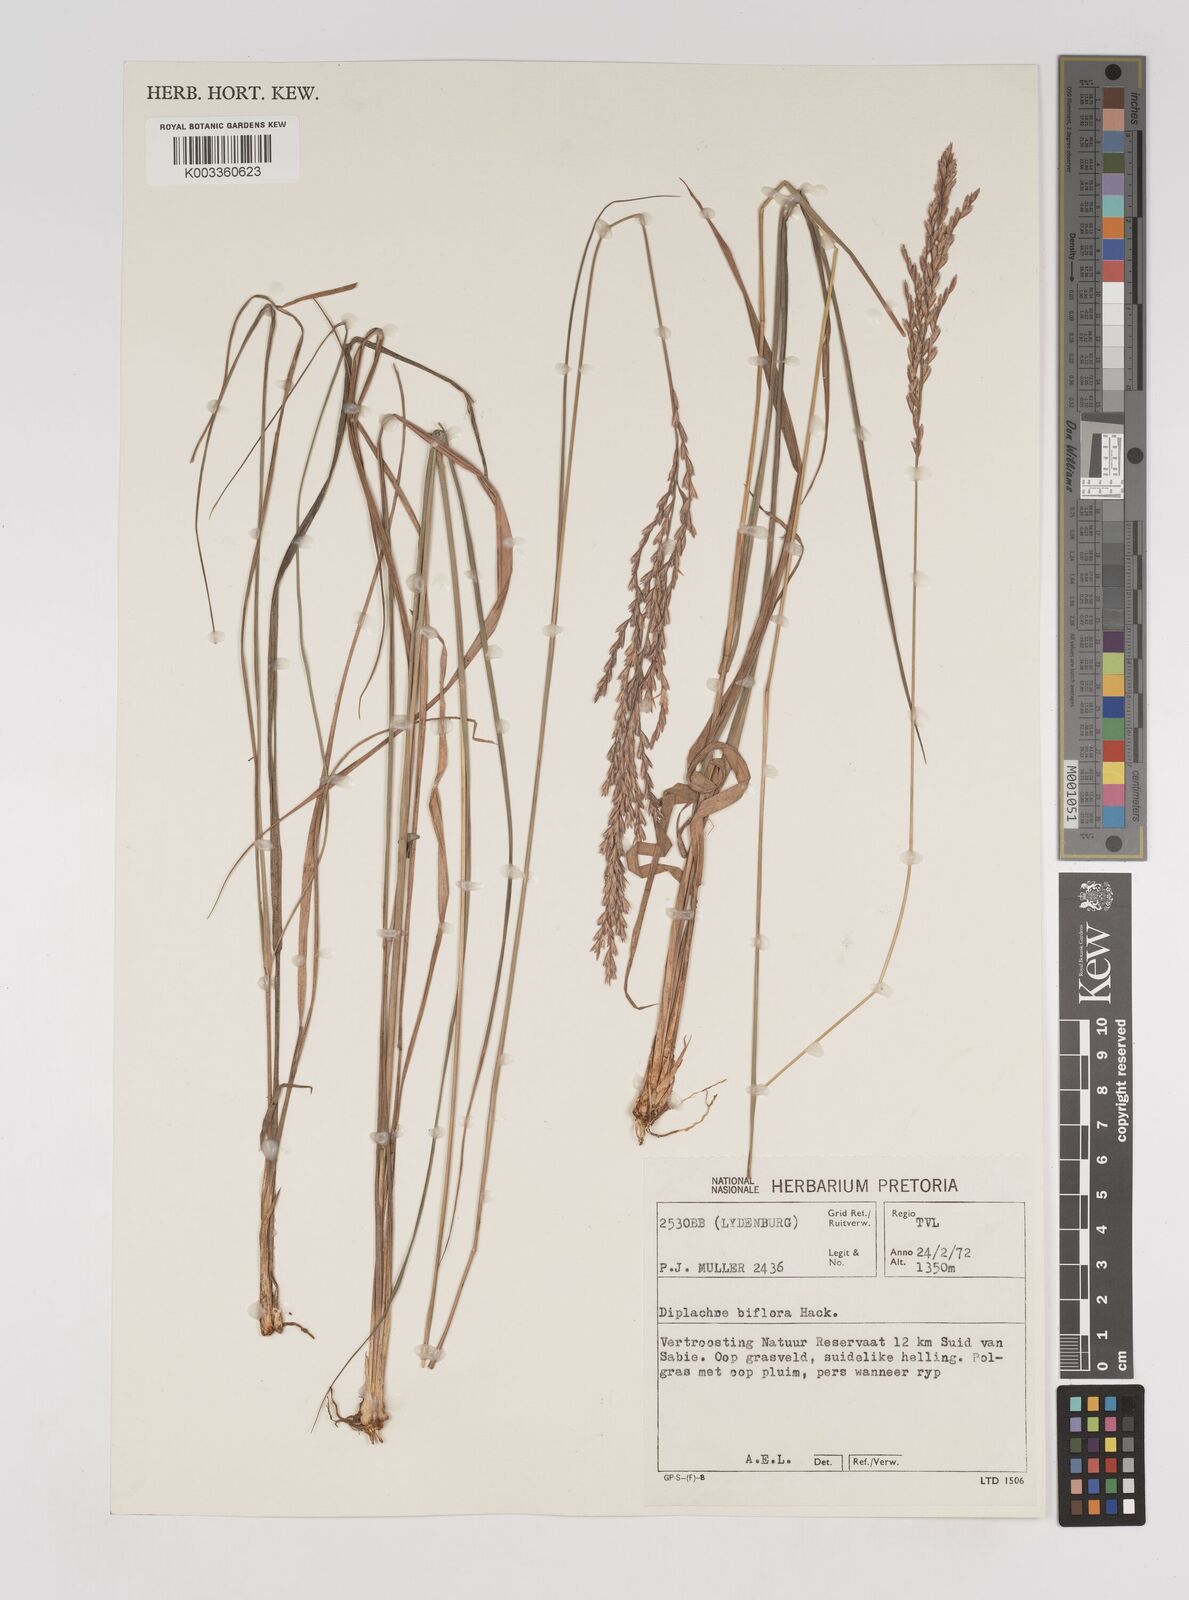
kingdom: Plantae
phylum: Tracheophyta
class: Liliopsida
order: Poales
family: Poaceae
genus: Bewsia
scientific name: Bewsia biflora
